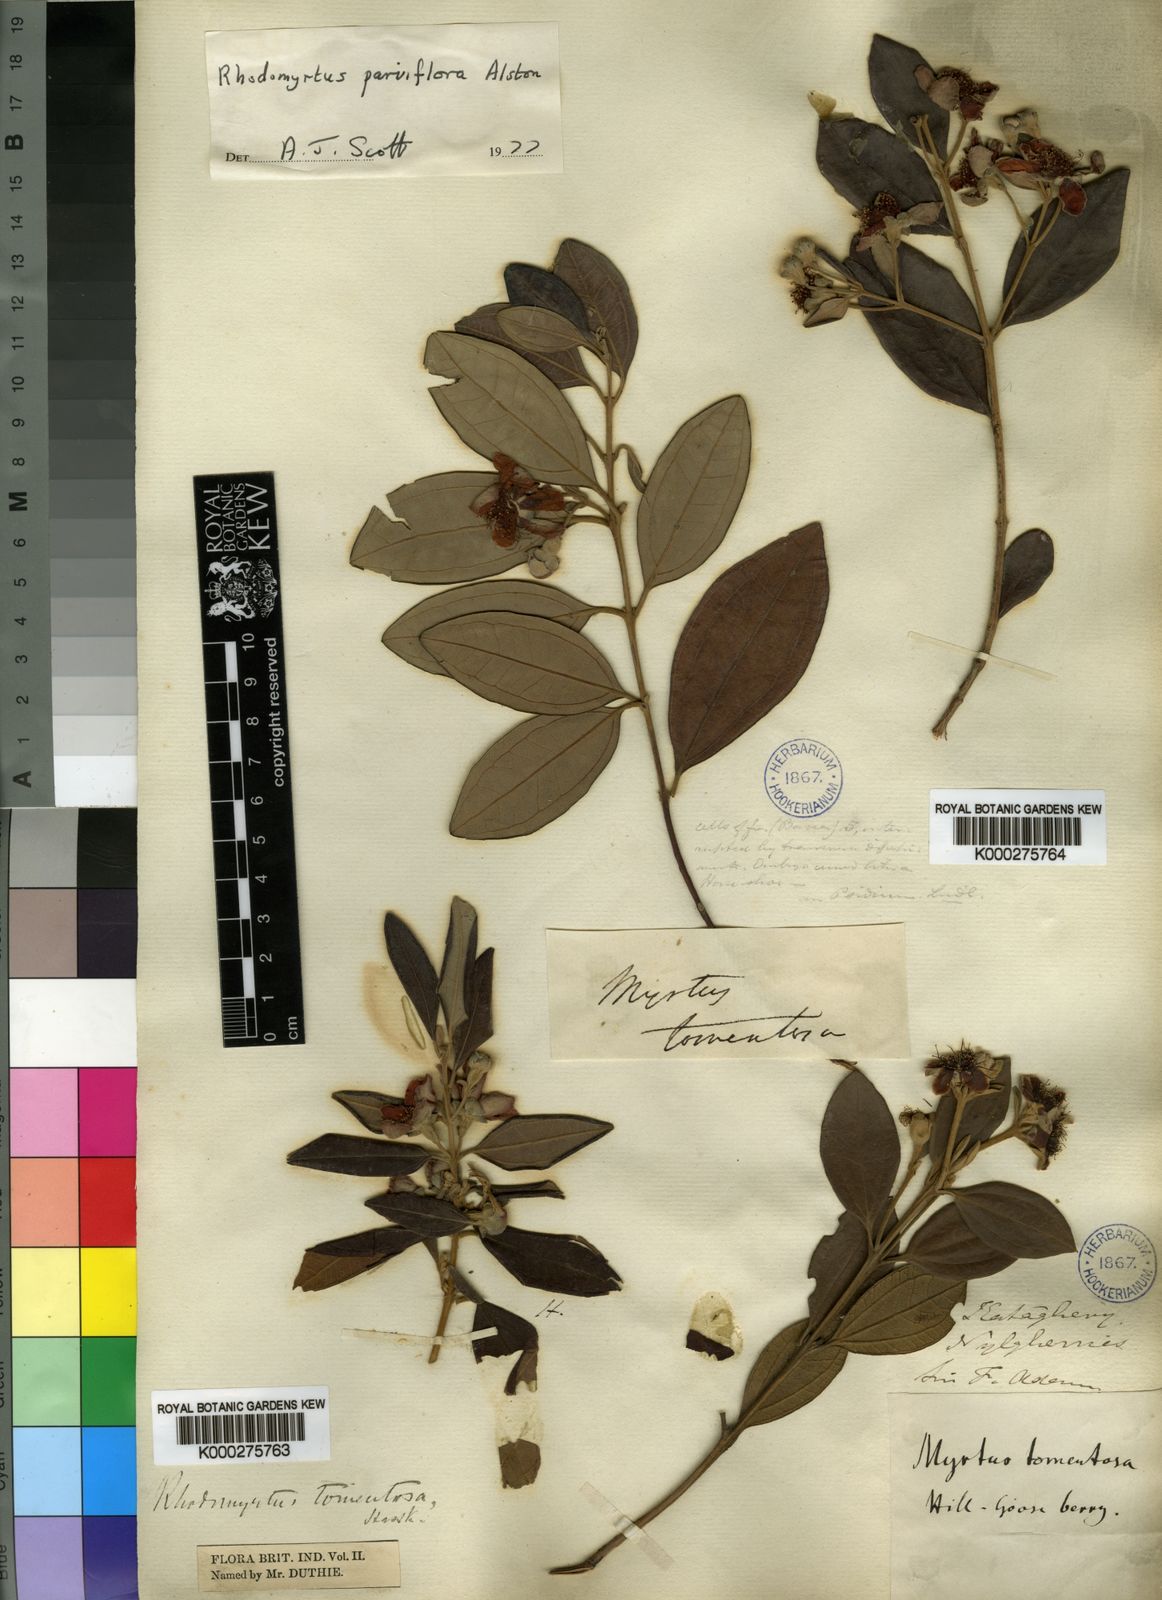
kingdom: Plantae
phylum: Tracheophyta
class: Magnoliopsida
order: Myrtales
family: Myrtaceae
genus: Rhodomyrtus
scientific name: Rhodomyrtus tomentosa
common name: Rose myrtle
